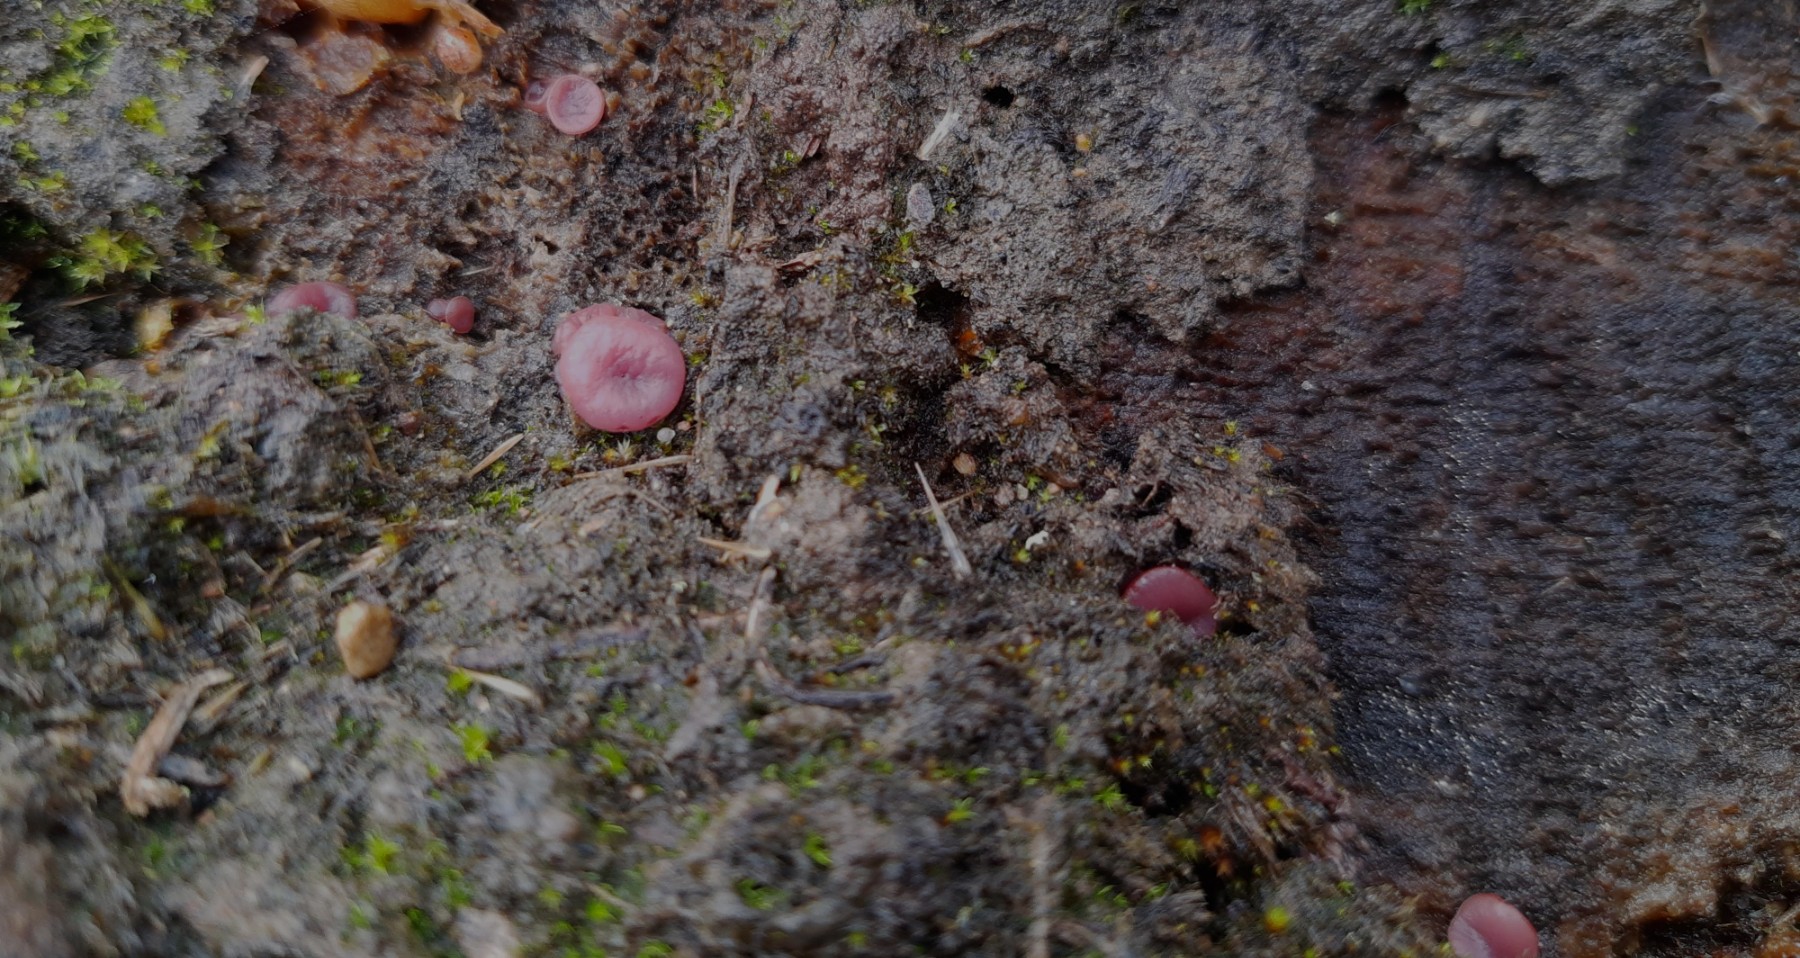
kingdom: Fungi
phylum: Ascomycota
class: Leotiomycetes
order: Helotiales
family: Gelatinodiscaceae
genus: Ascocoryne
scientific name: Ascocoryne cylichnium
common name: stor sejskive
